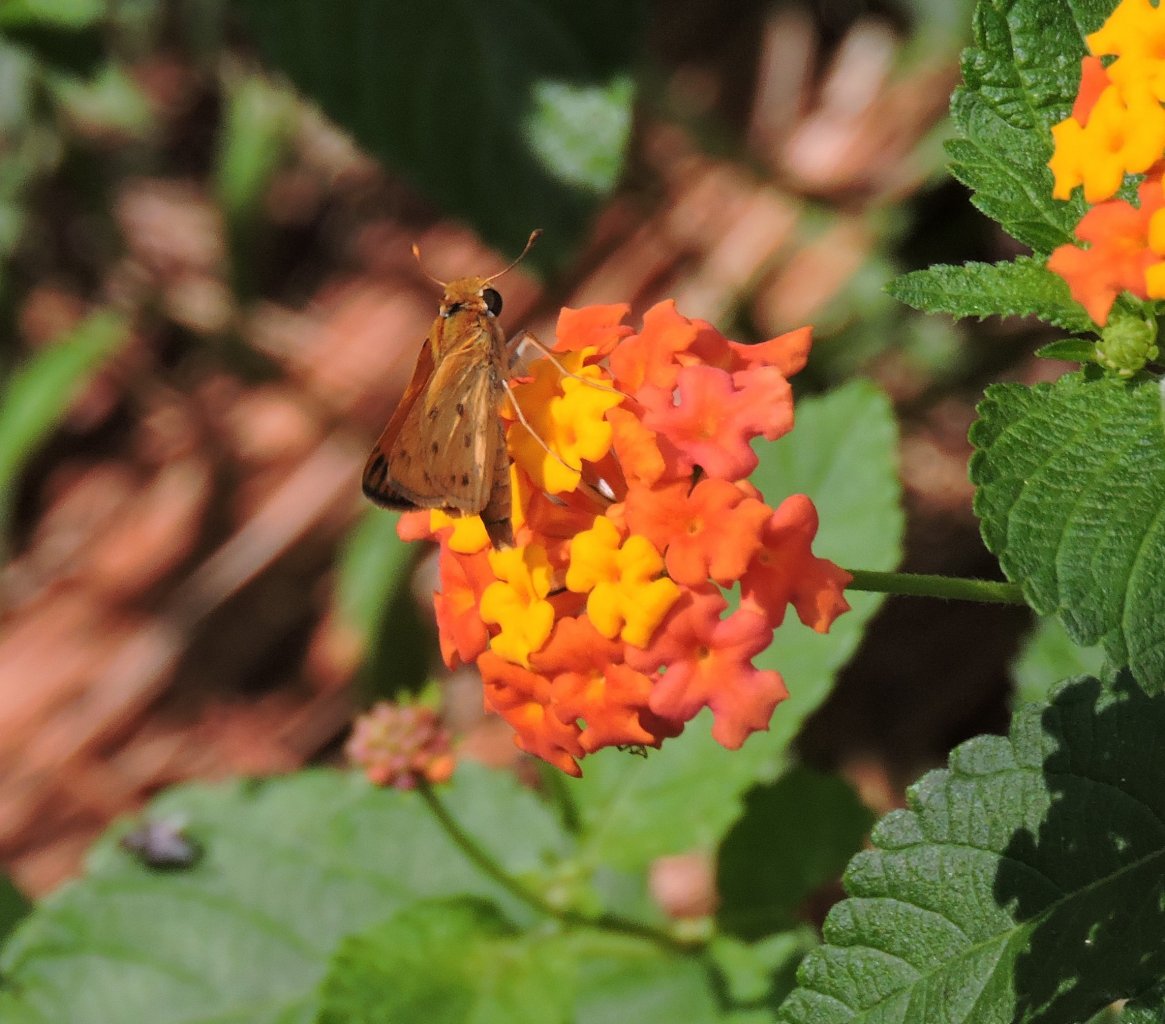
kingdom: Animalia
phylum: Arthropoda
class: Insecta
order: Lepidoptera
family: Hesperiidae
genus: Hylephila
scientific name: Hylephila phyleus
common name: Fiery Skipper
